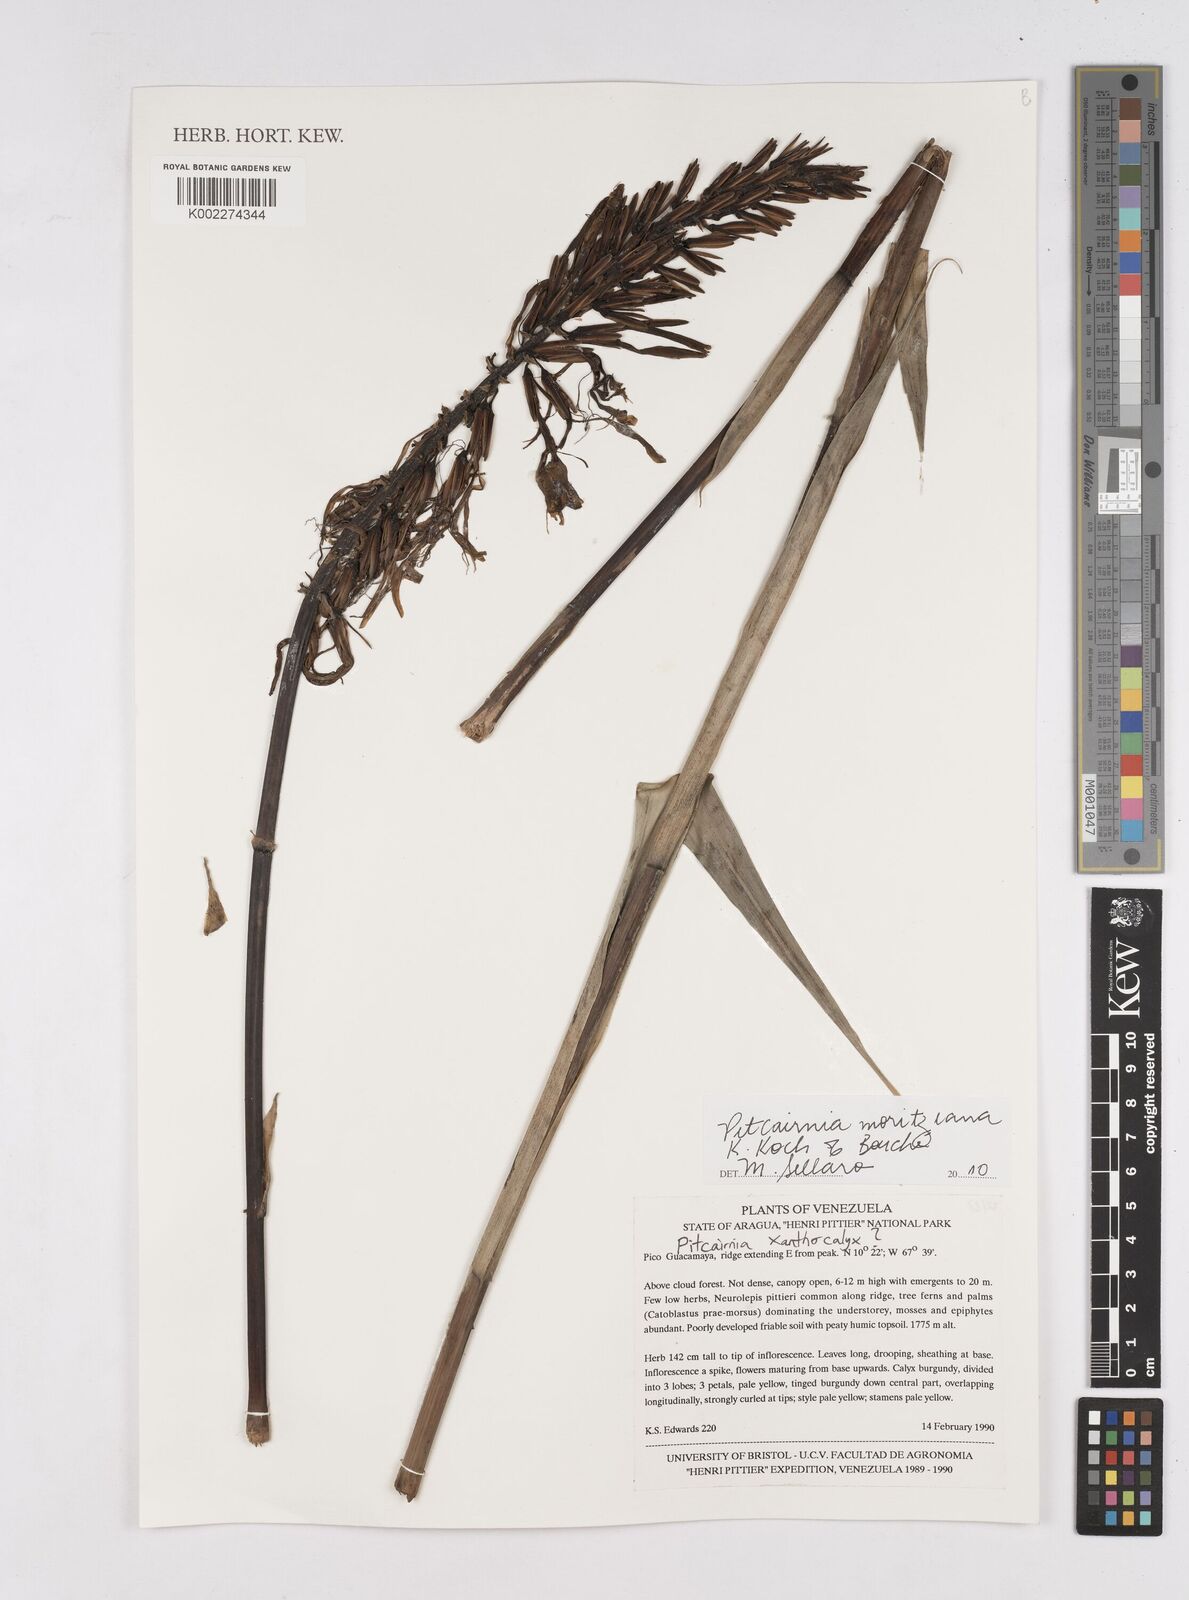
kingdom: Plantae
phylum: Tracheophyta
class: Liliopsida
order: Poales
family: Bromeliaceae
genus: Pitcairnia
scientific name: Pitcairnia moritziana
